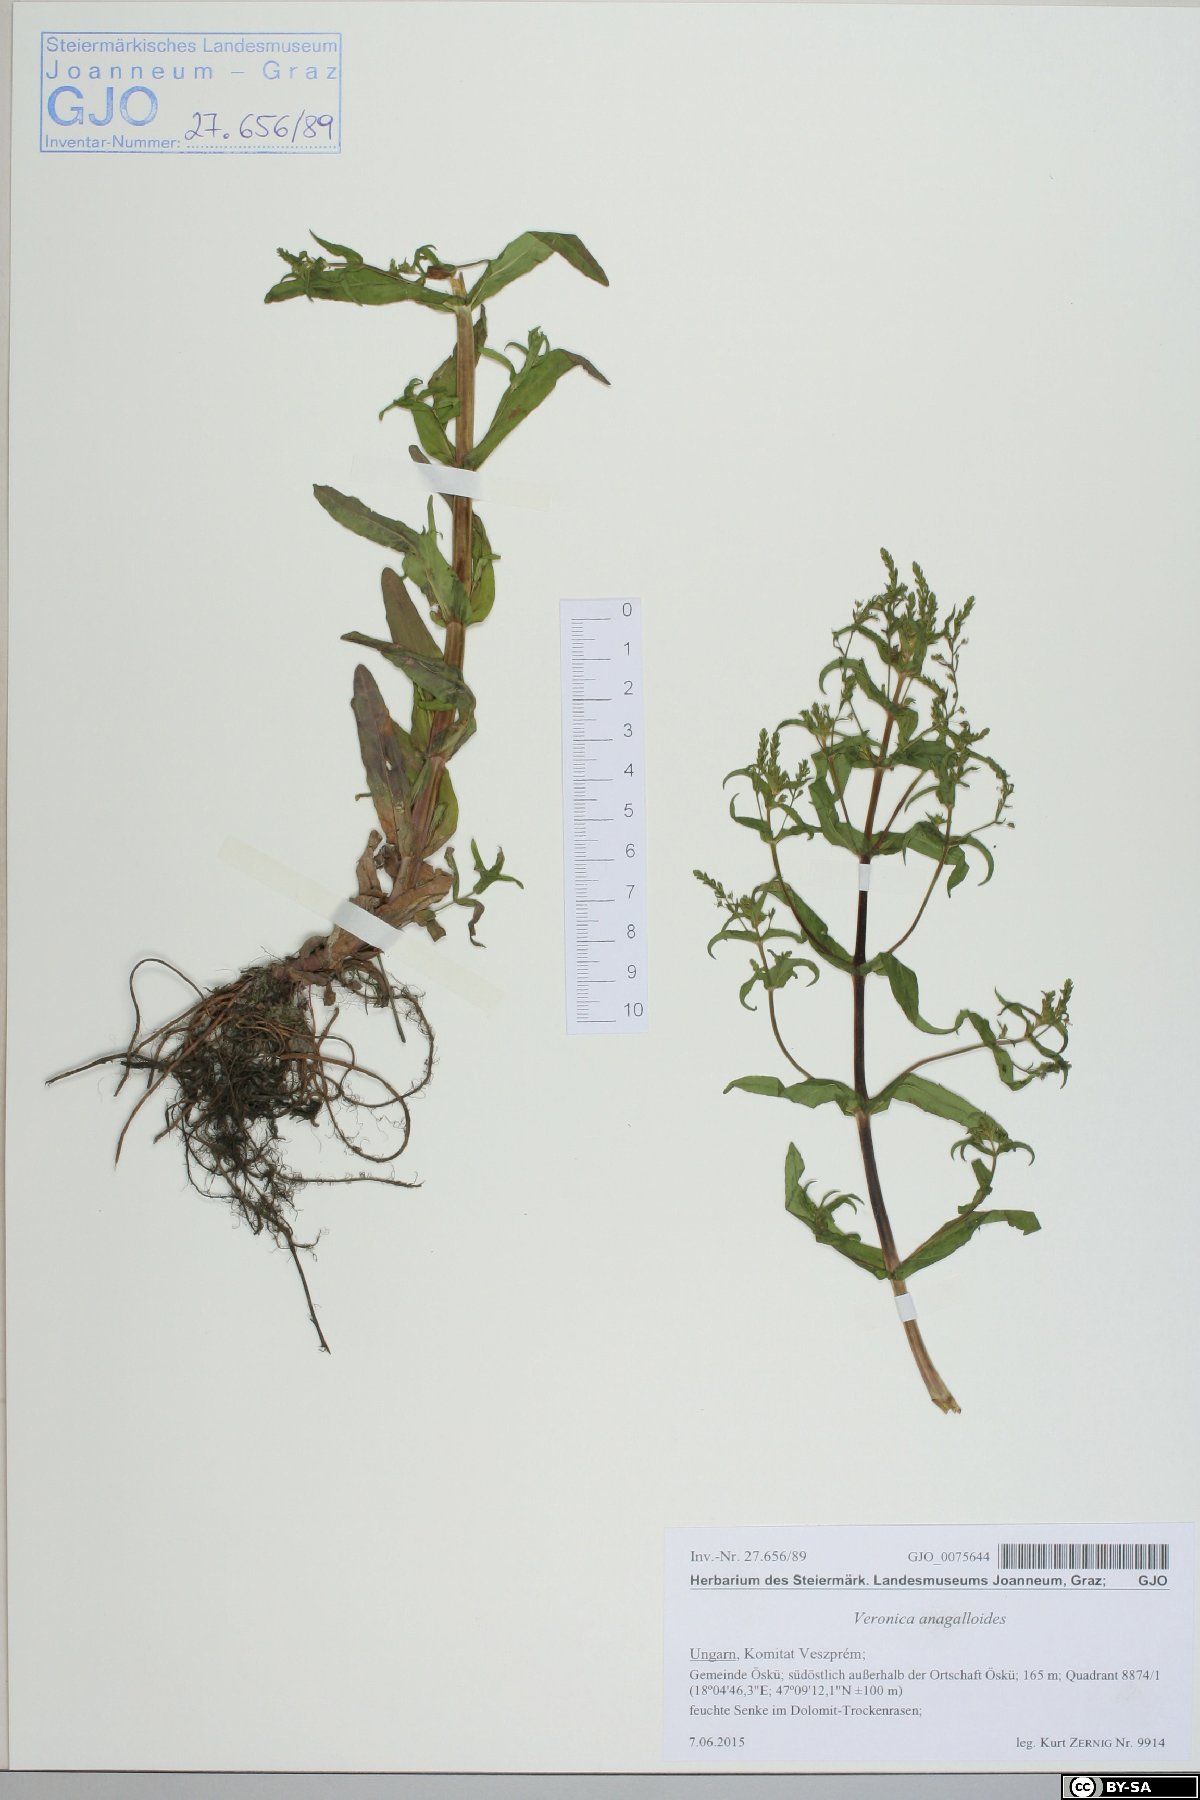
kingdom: Plantae
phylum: Tracheophyta
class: Magnoliopsida
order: Lamiales
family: Plantaginaceae
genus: Veronica
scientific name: Veronica anagalloides
